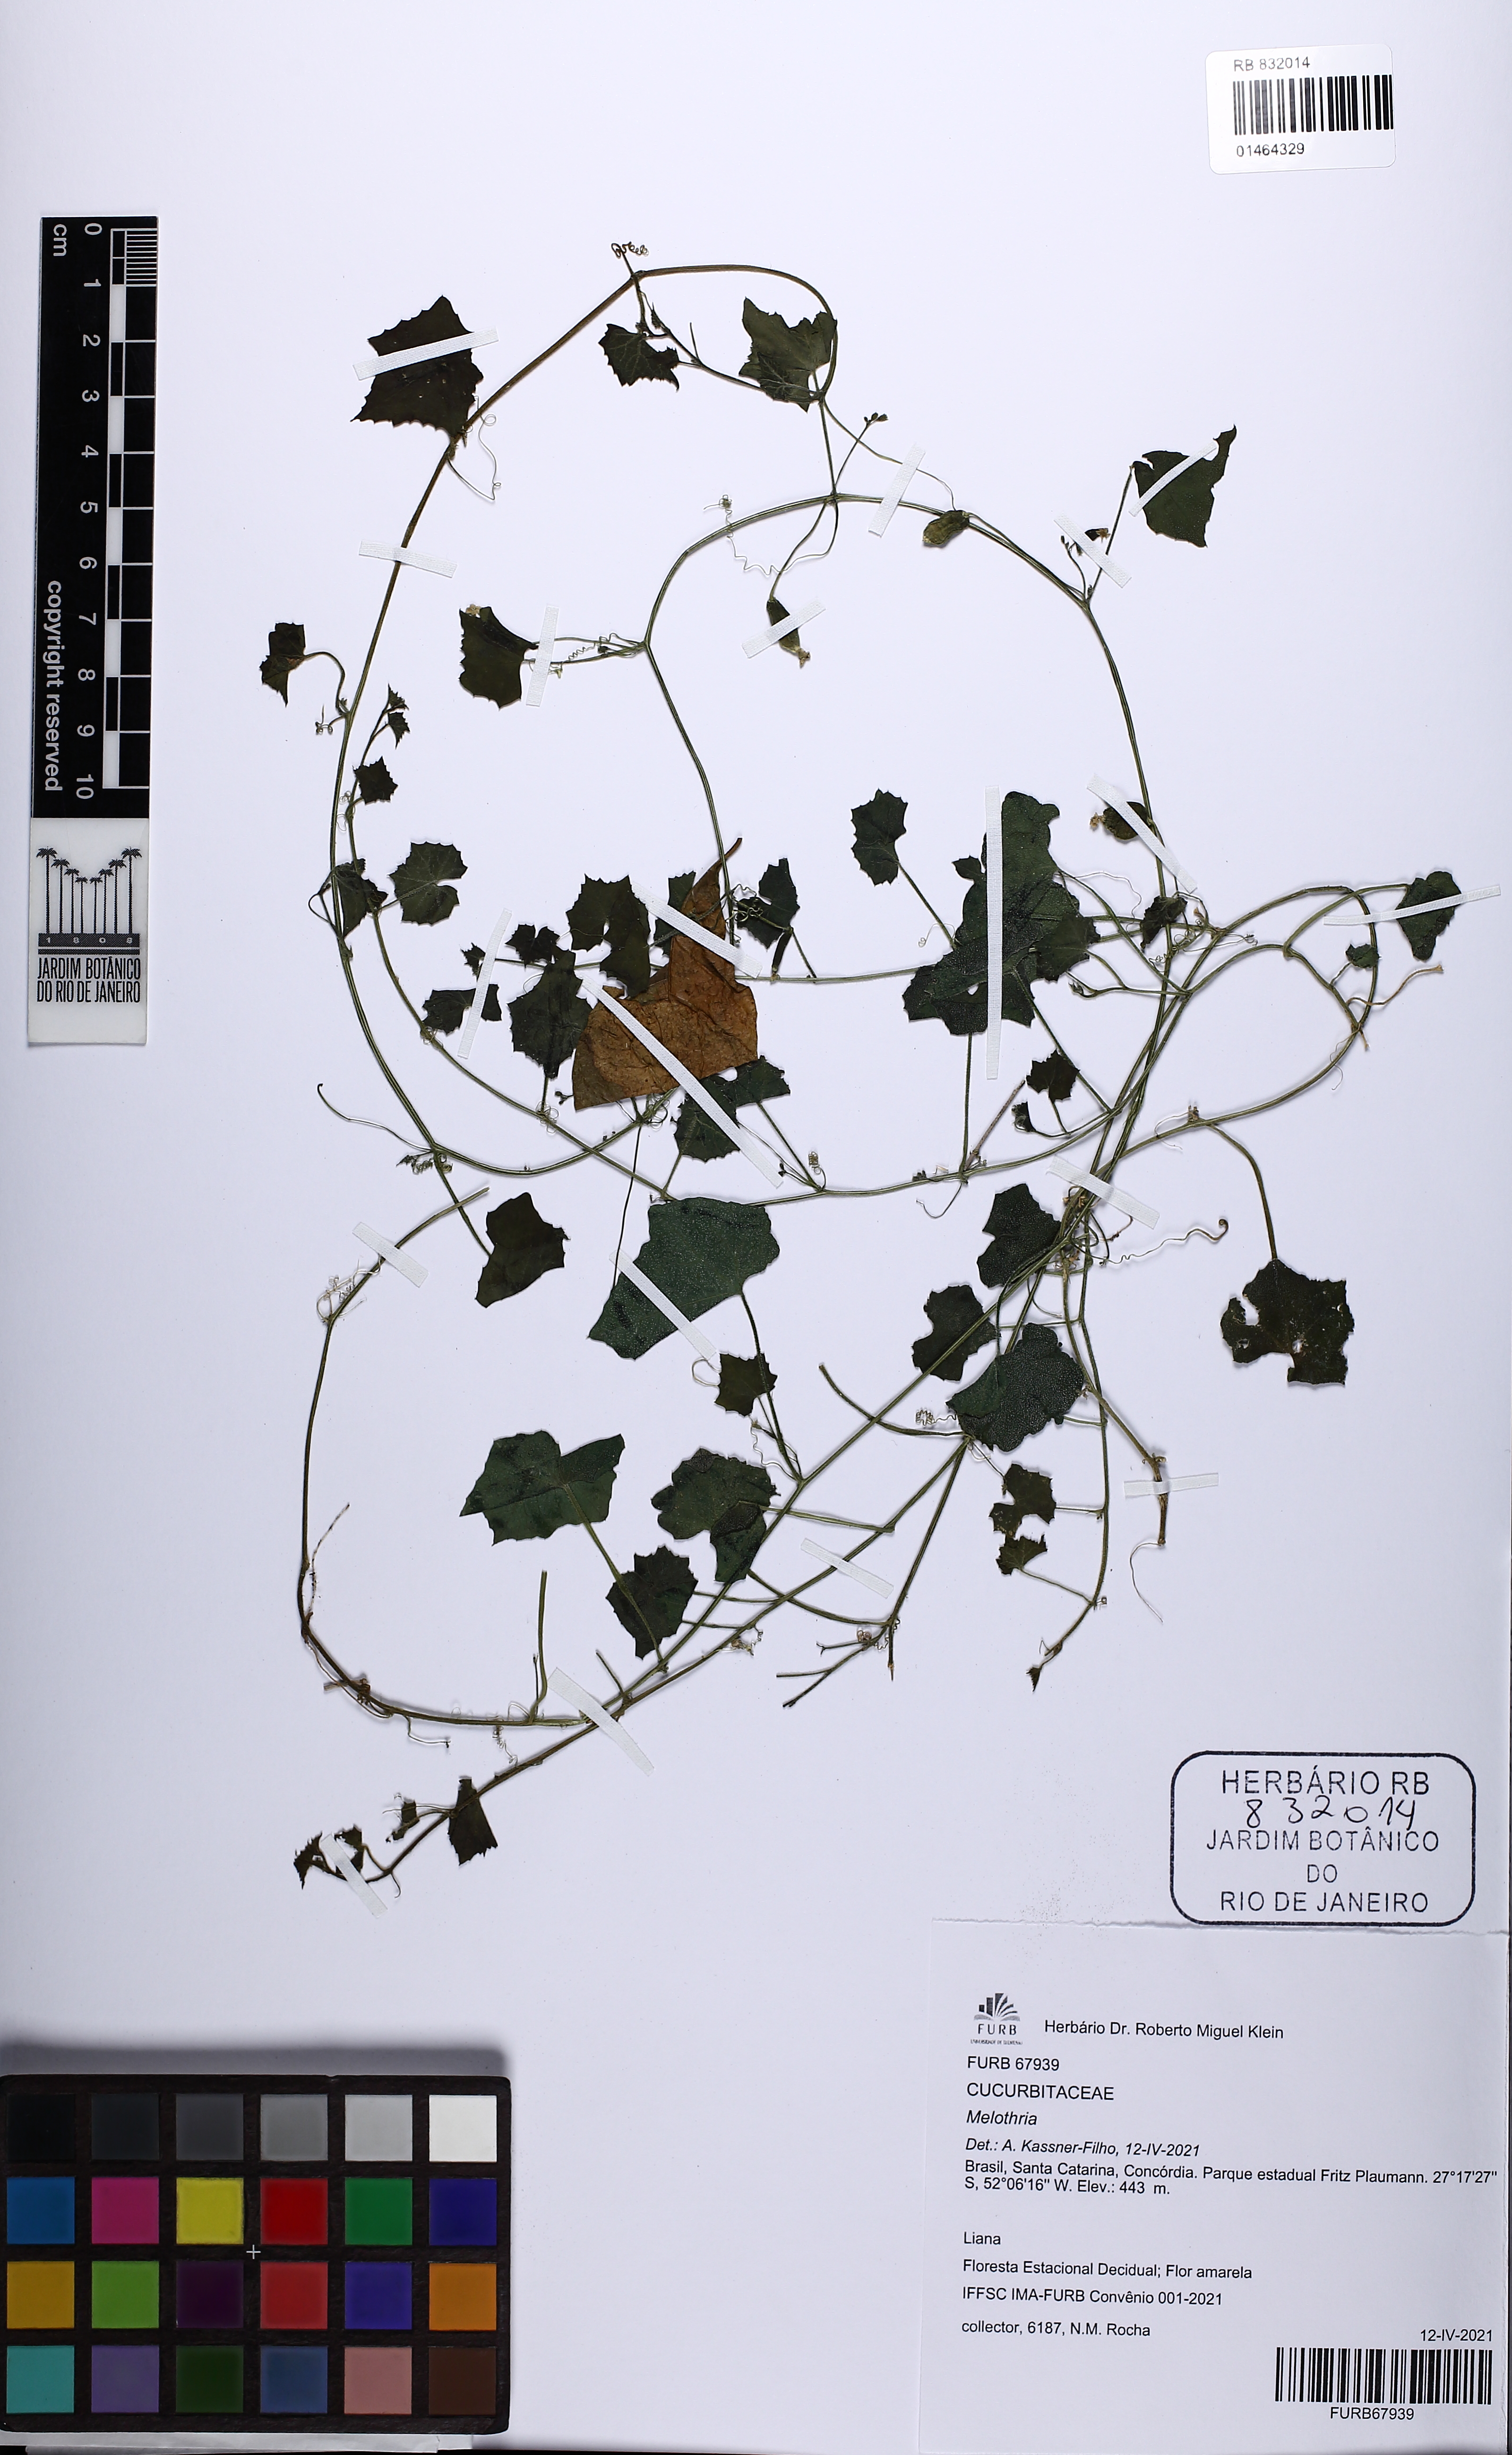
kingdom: Plantae
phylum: Tracheophyta
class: Magnoliopsida
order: Cucurbitales
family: Cucurbitaceae
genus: Melothria
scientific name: Melothria
